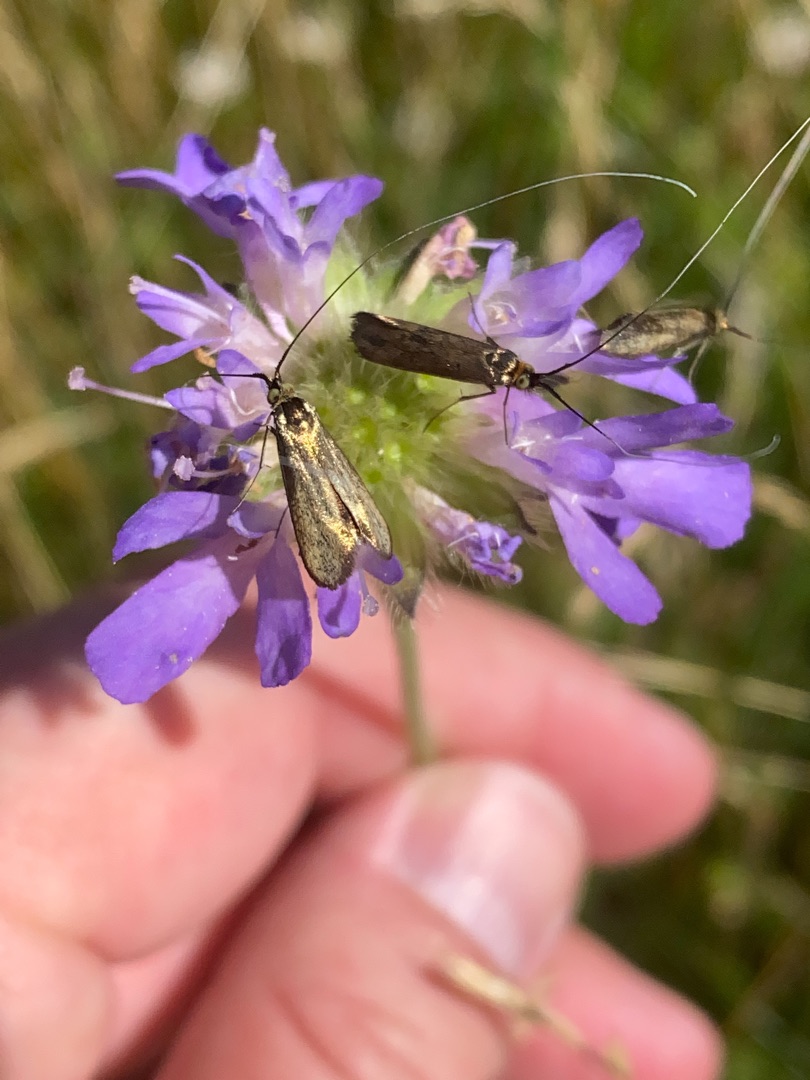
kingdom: Animalia
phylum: Arthropoda
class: Insecta
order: Lepidoptera
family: Adelidae
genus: Nemophora
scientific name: Nemophora cupriacella
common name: Blåhatlanghornsmøl
